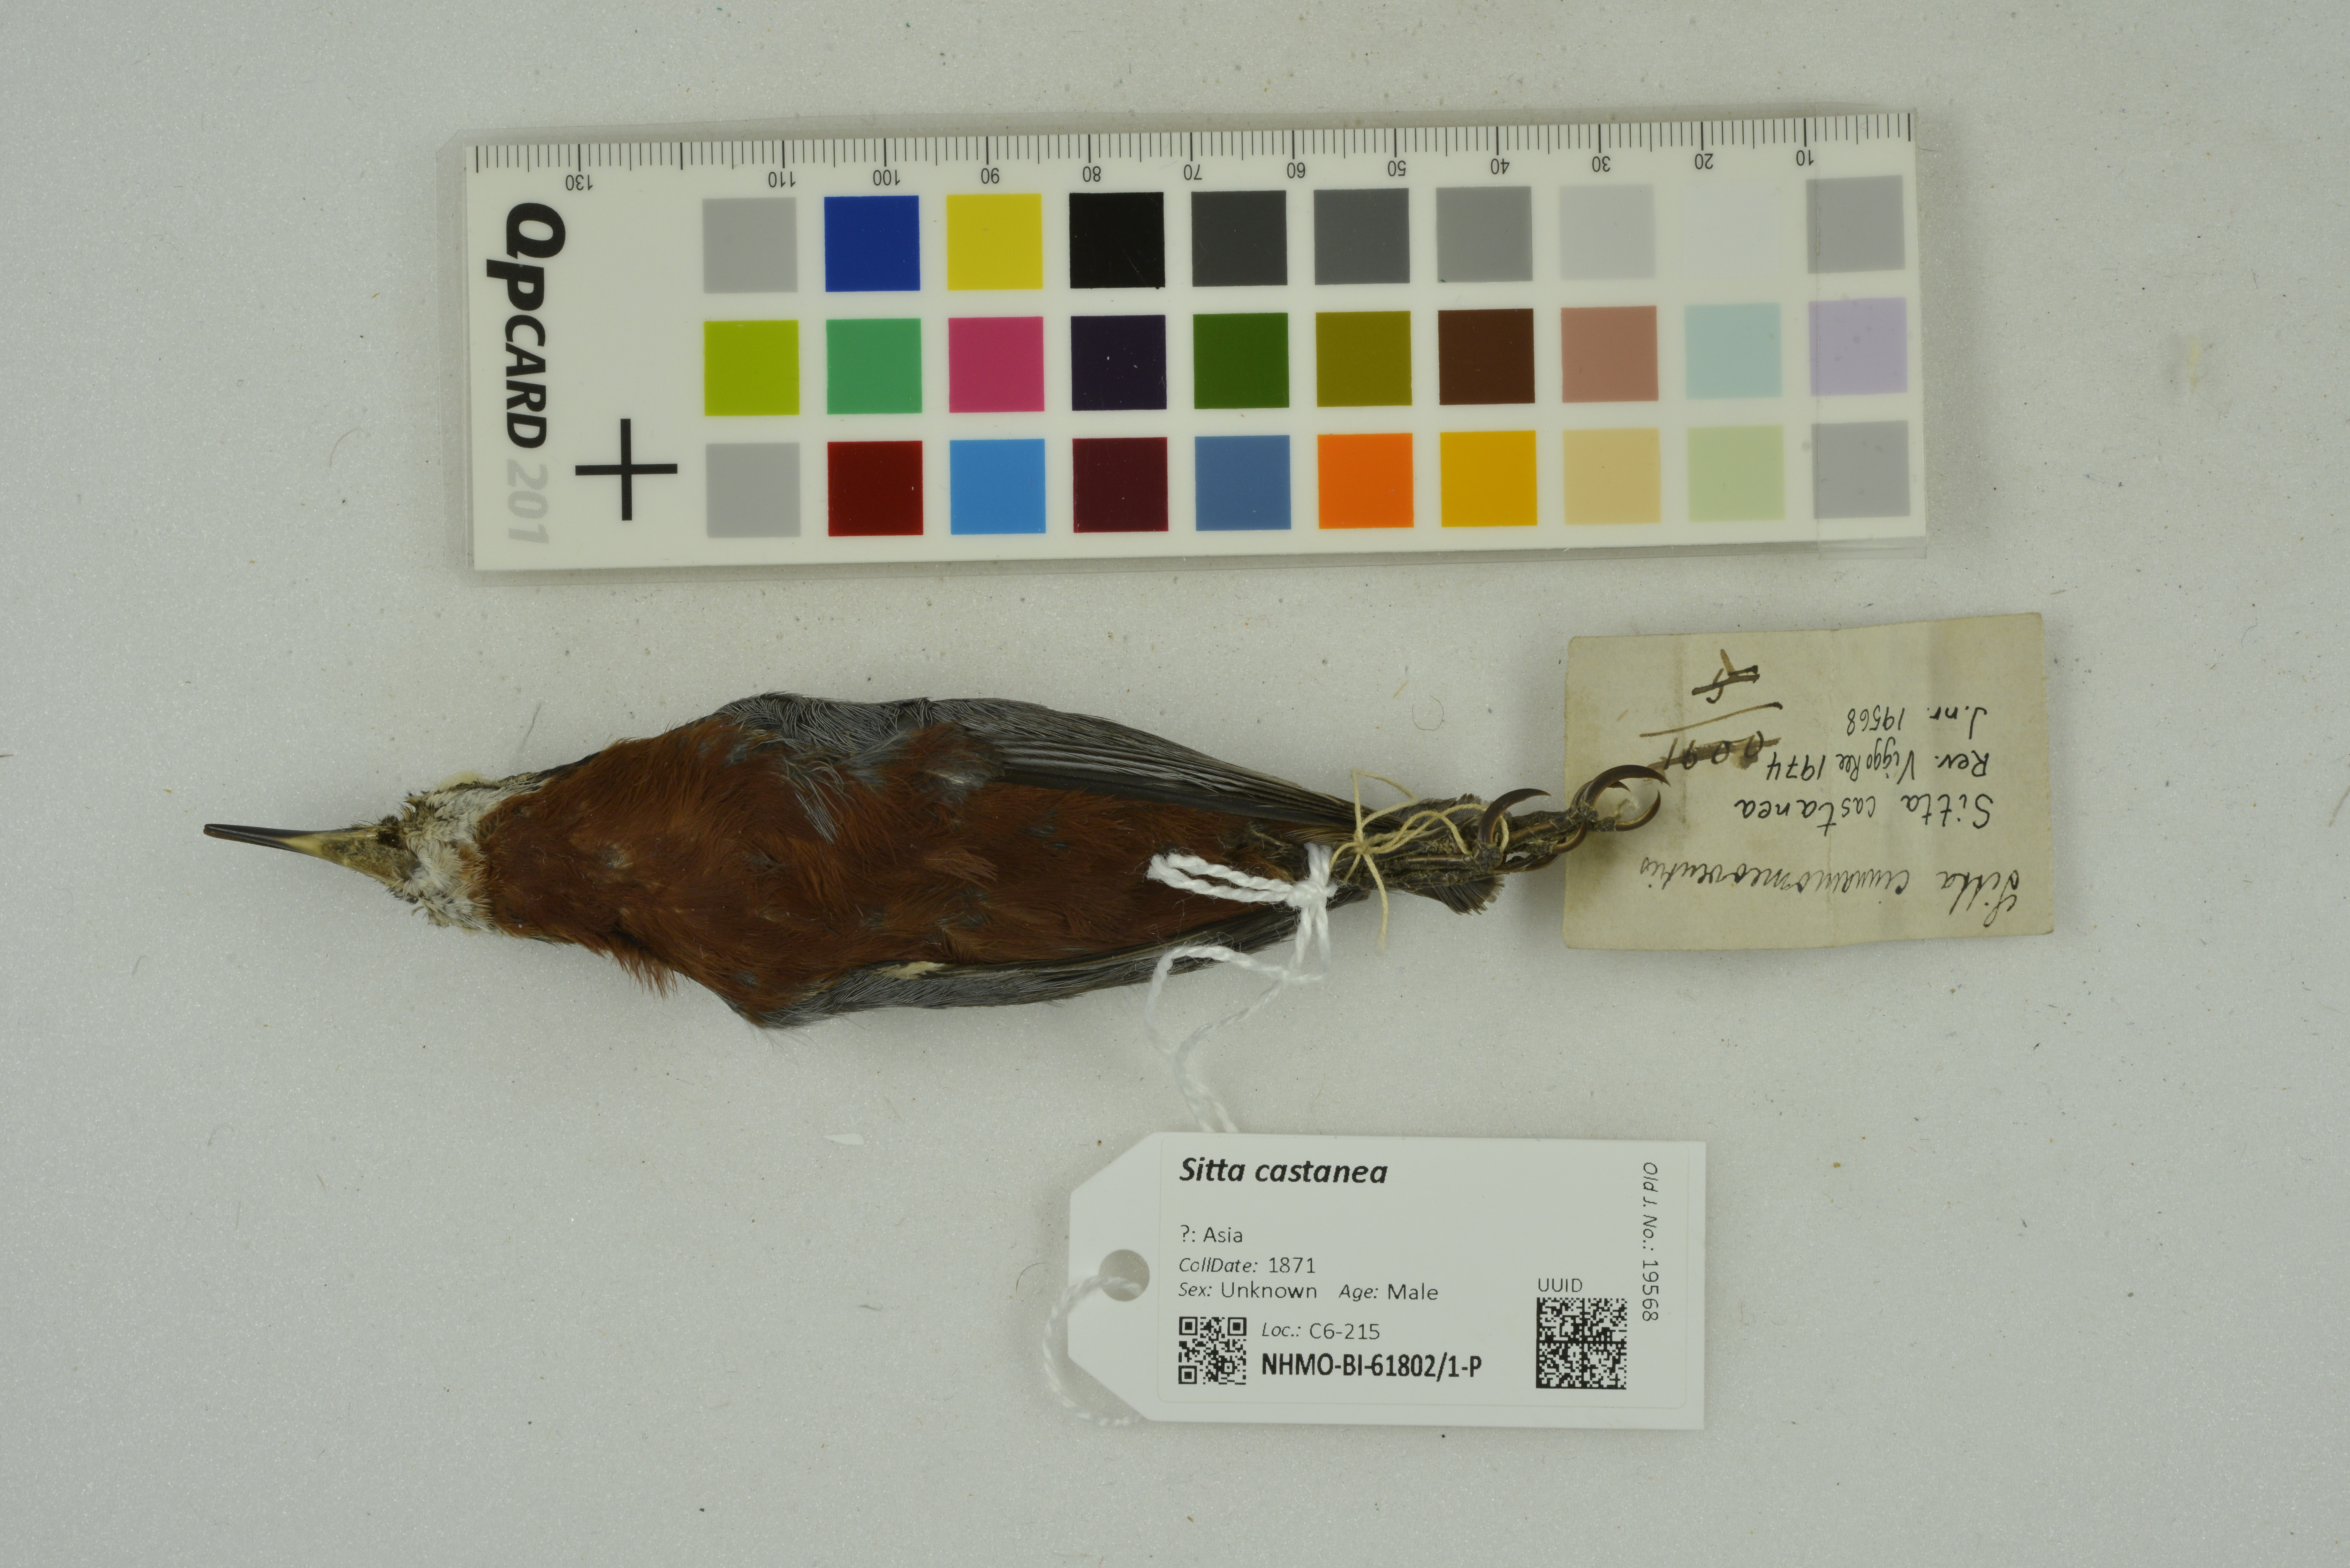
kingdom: Animalia
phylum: Chordata
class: Aves
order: Passeriformes
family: Sittidae
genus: Sitta
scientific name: Sitta castanea
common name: Indian nuthatch
